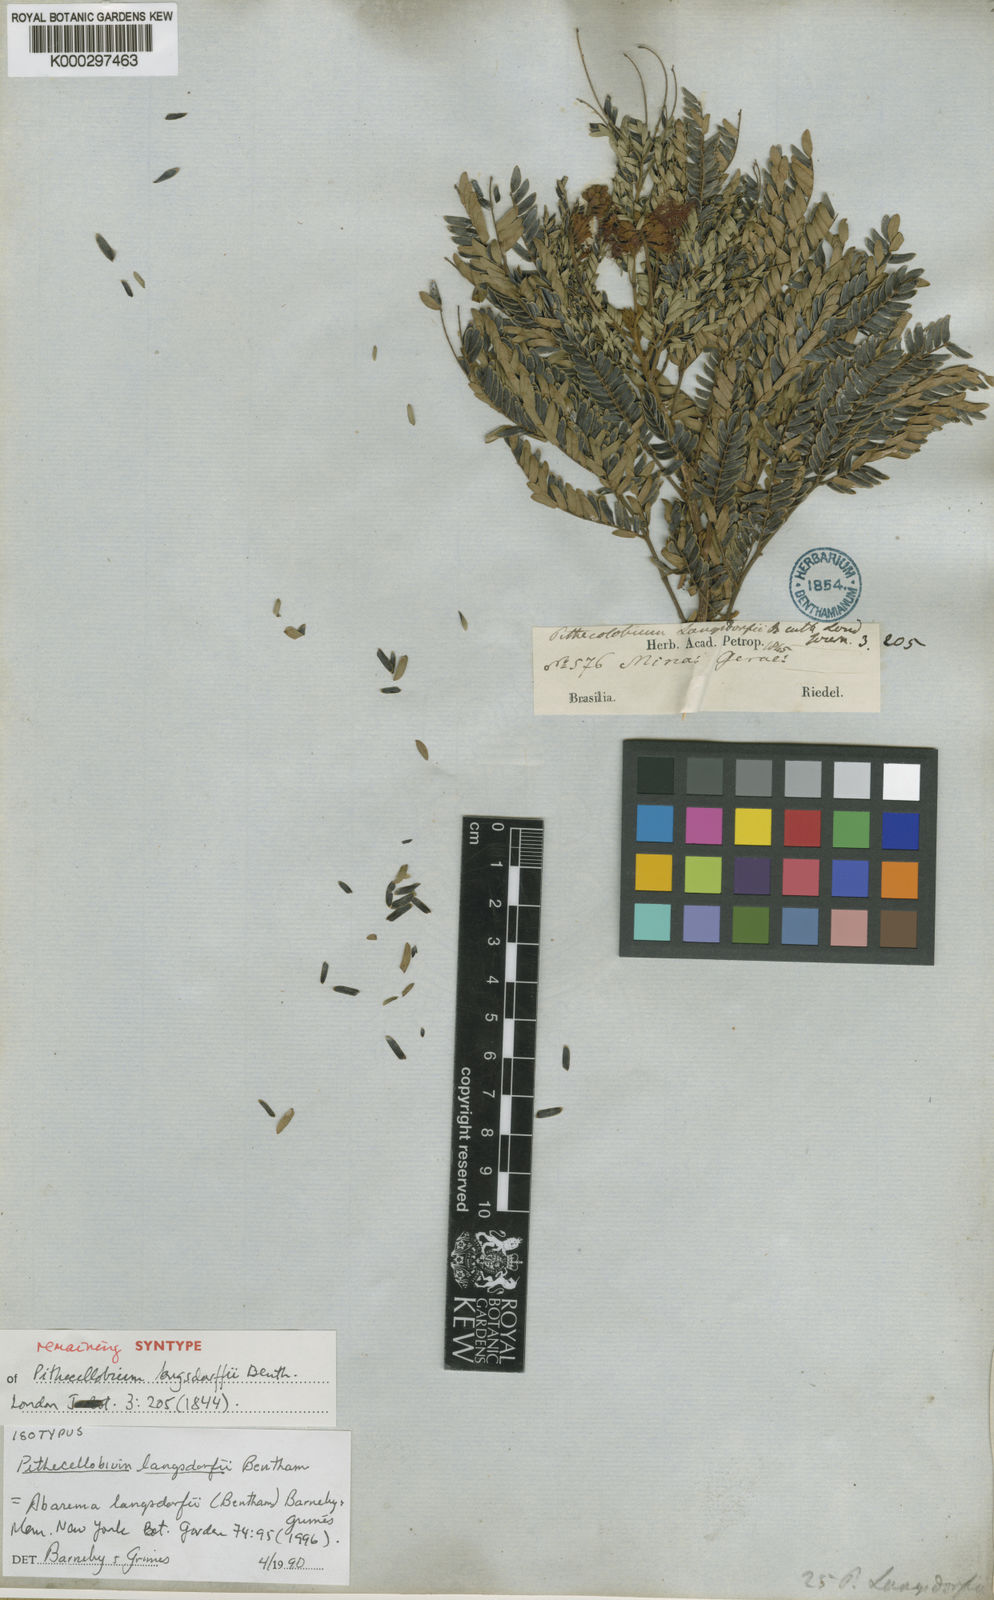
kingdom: Plantae
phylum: Tracheophyta
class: Magnoliopsida
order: Fabales
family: Fabaceae
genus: Jupunba
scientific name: Jupunba langsdorffii
